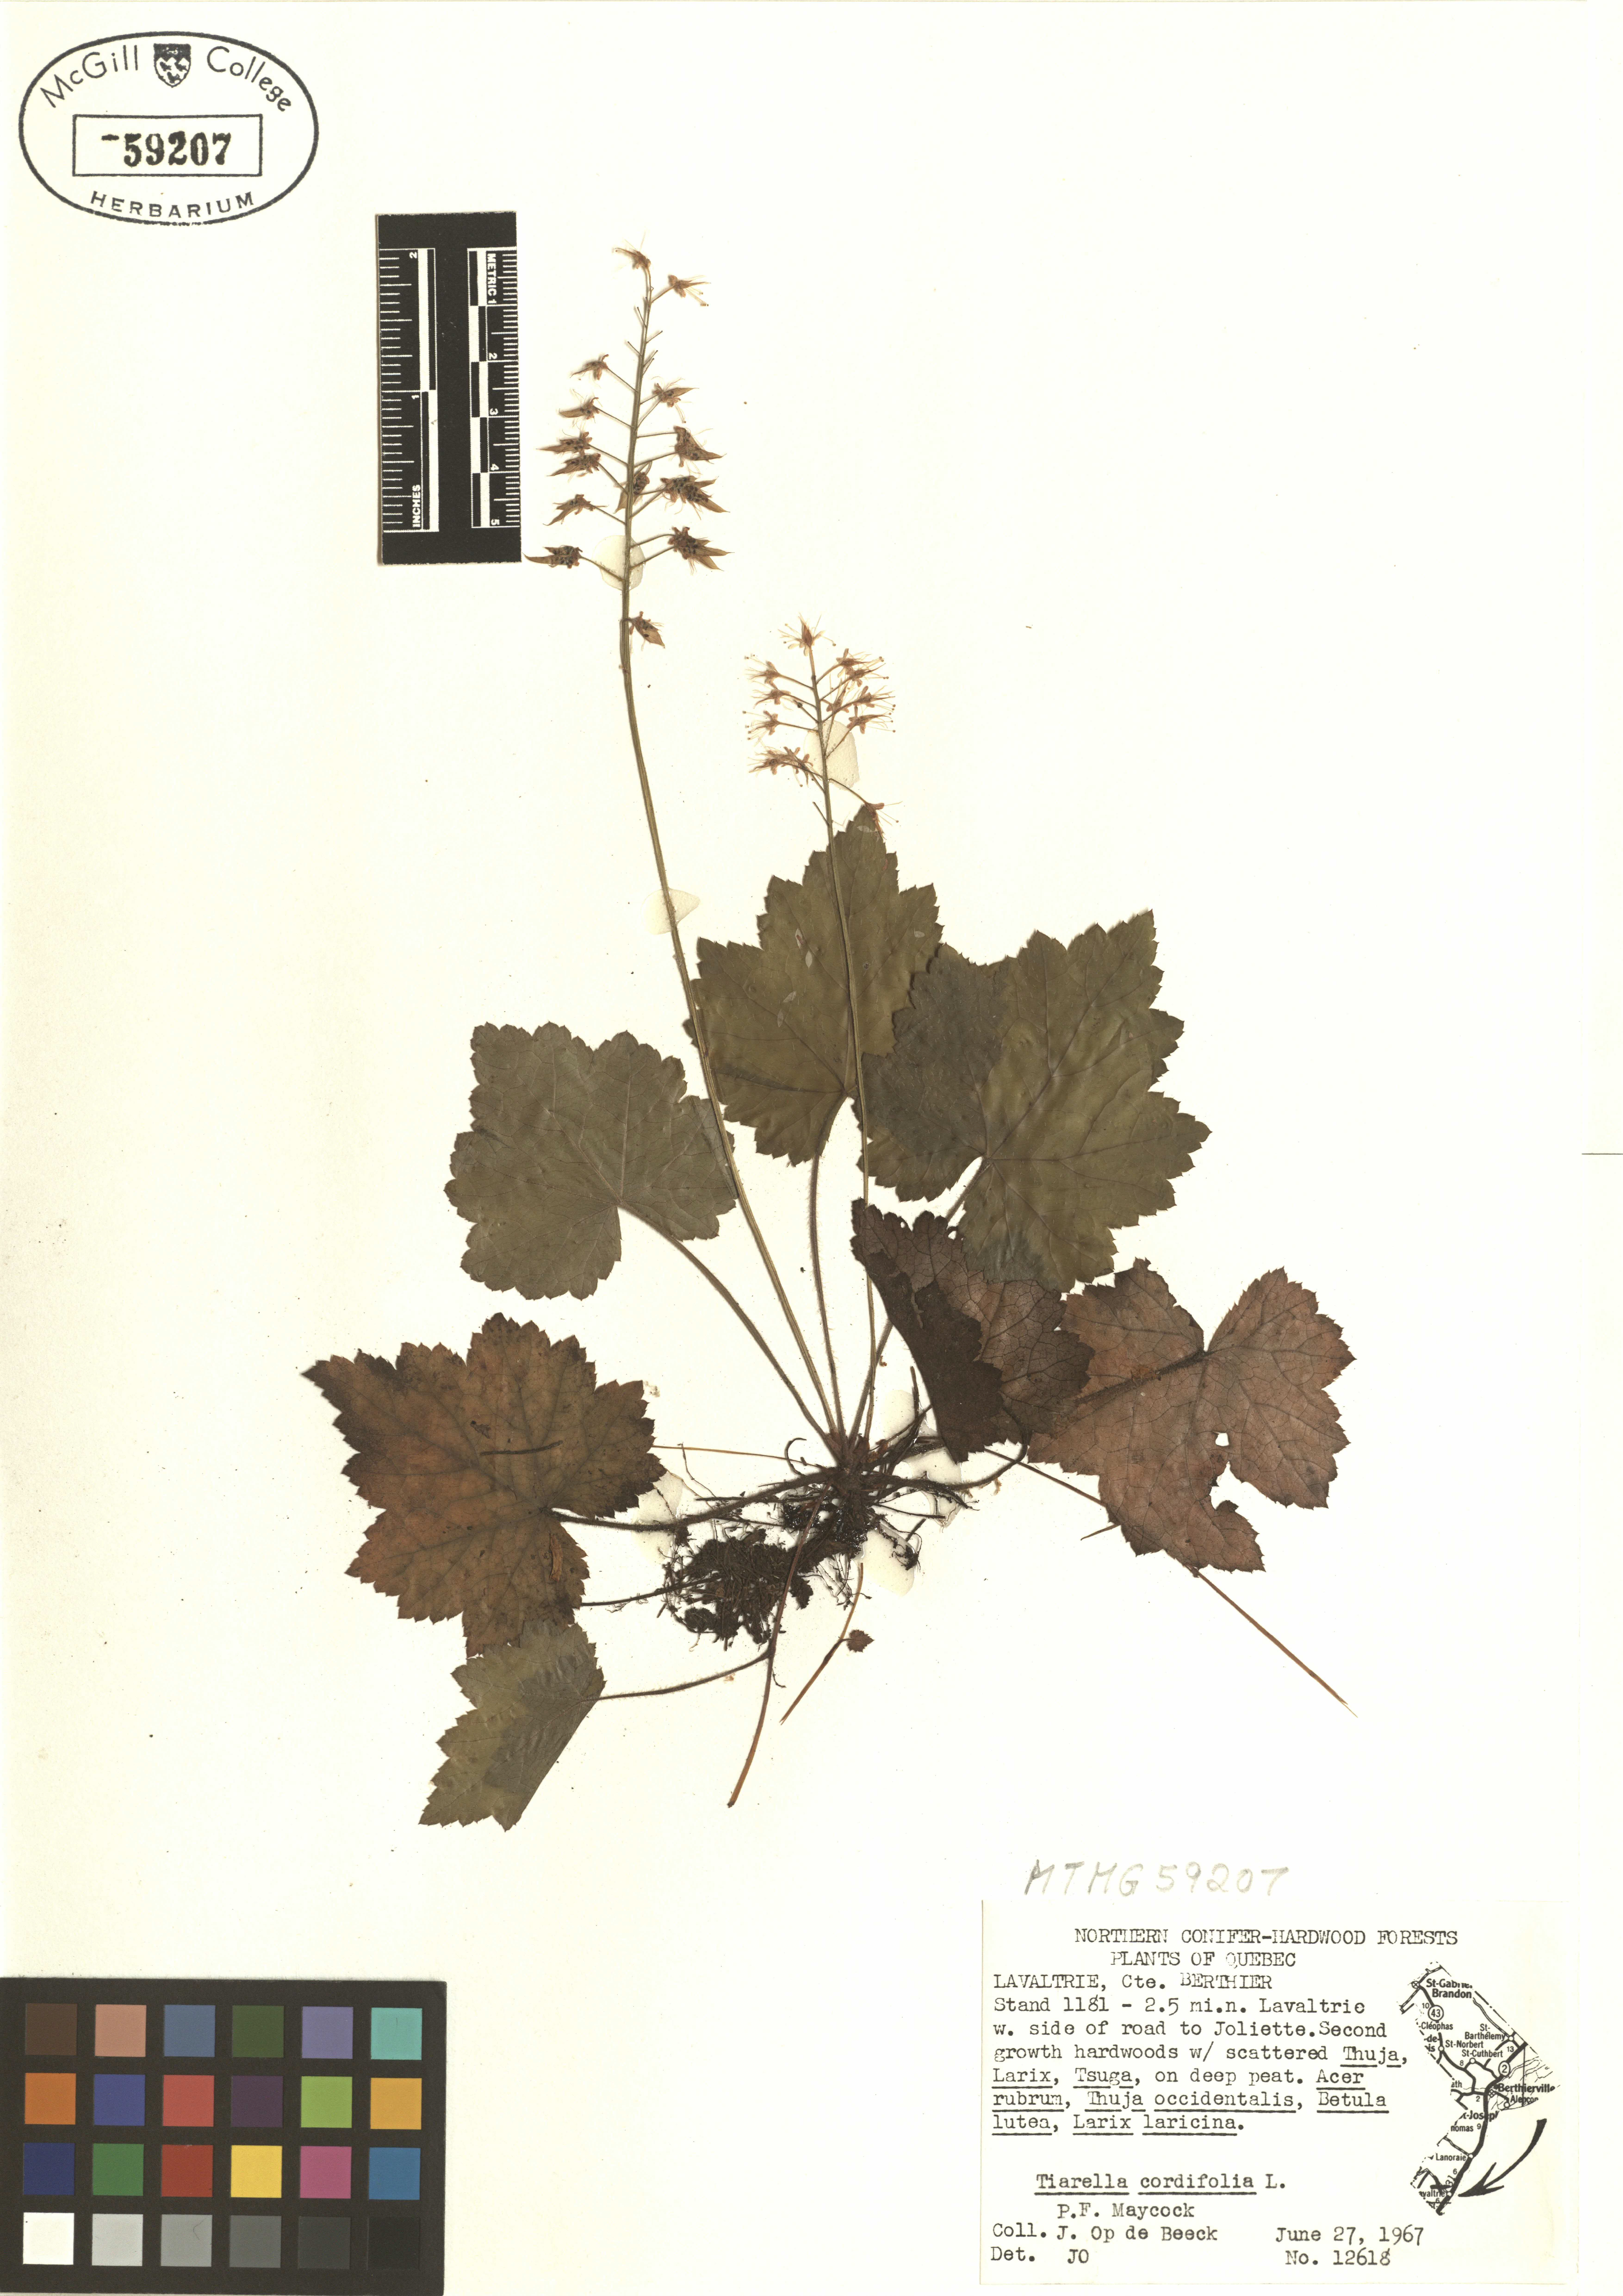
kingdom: Plantae
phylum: Tracheophyta
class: Magnoliopsida
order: Saxifragales
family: Saxifragaceae
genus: Tiarella
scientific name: Tiarella cordifolia
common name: Foamflower
